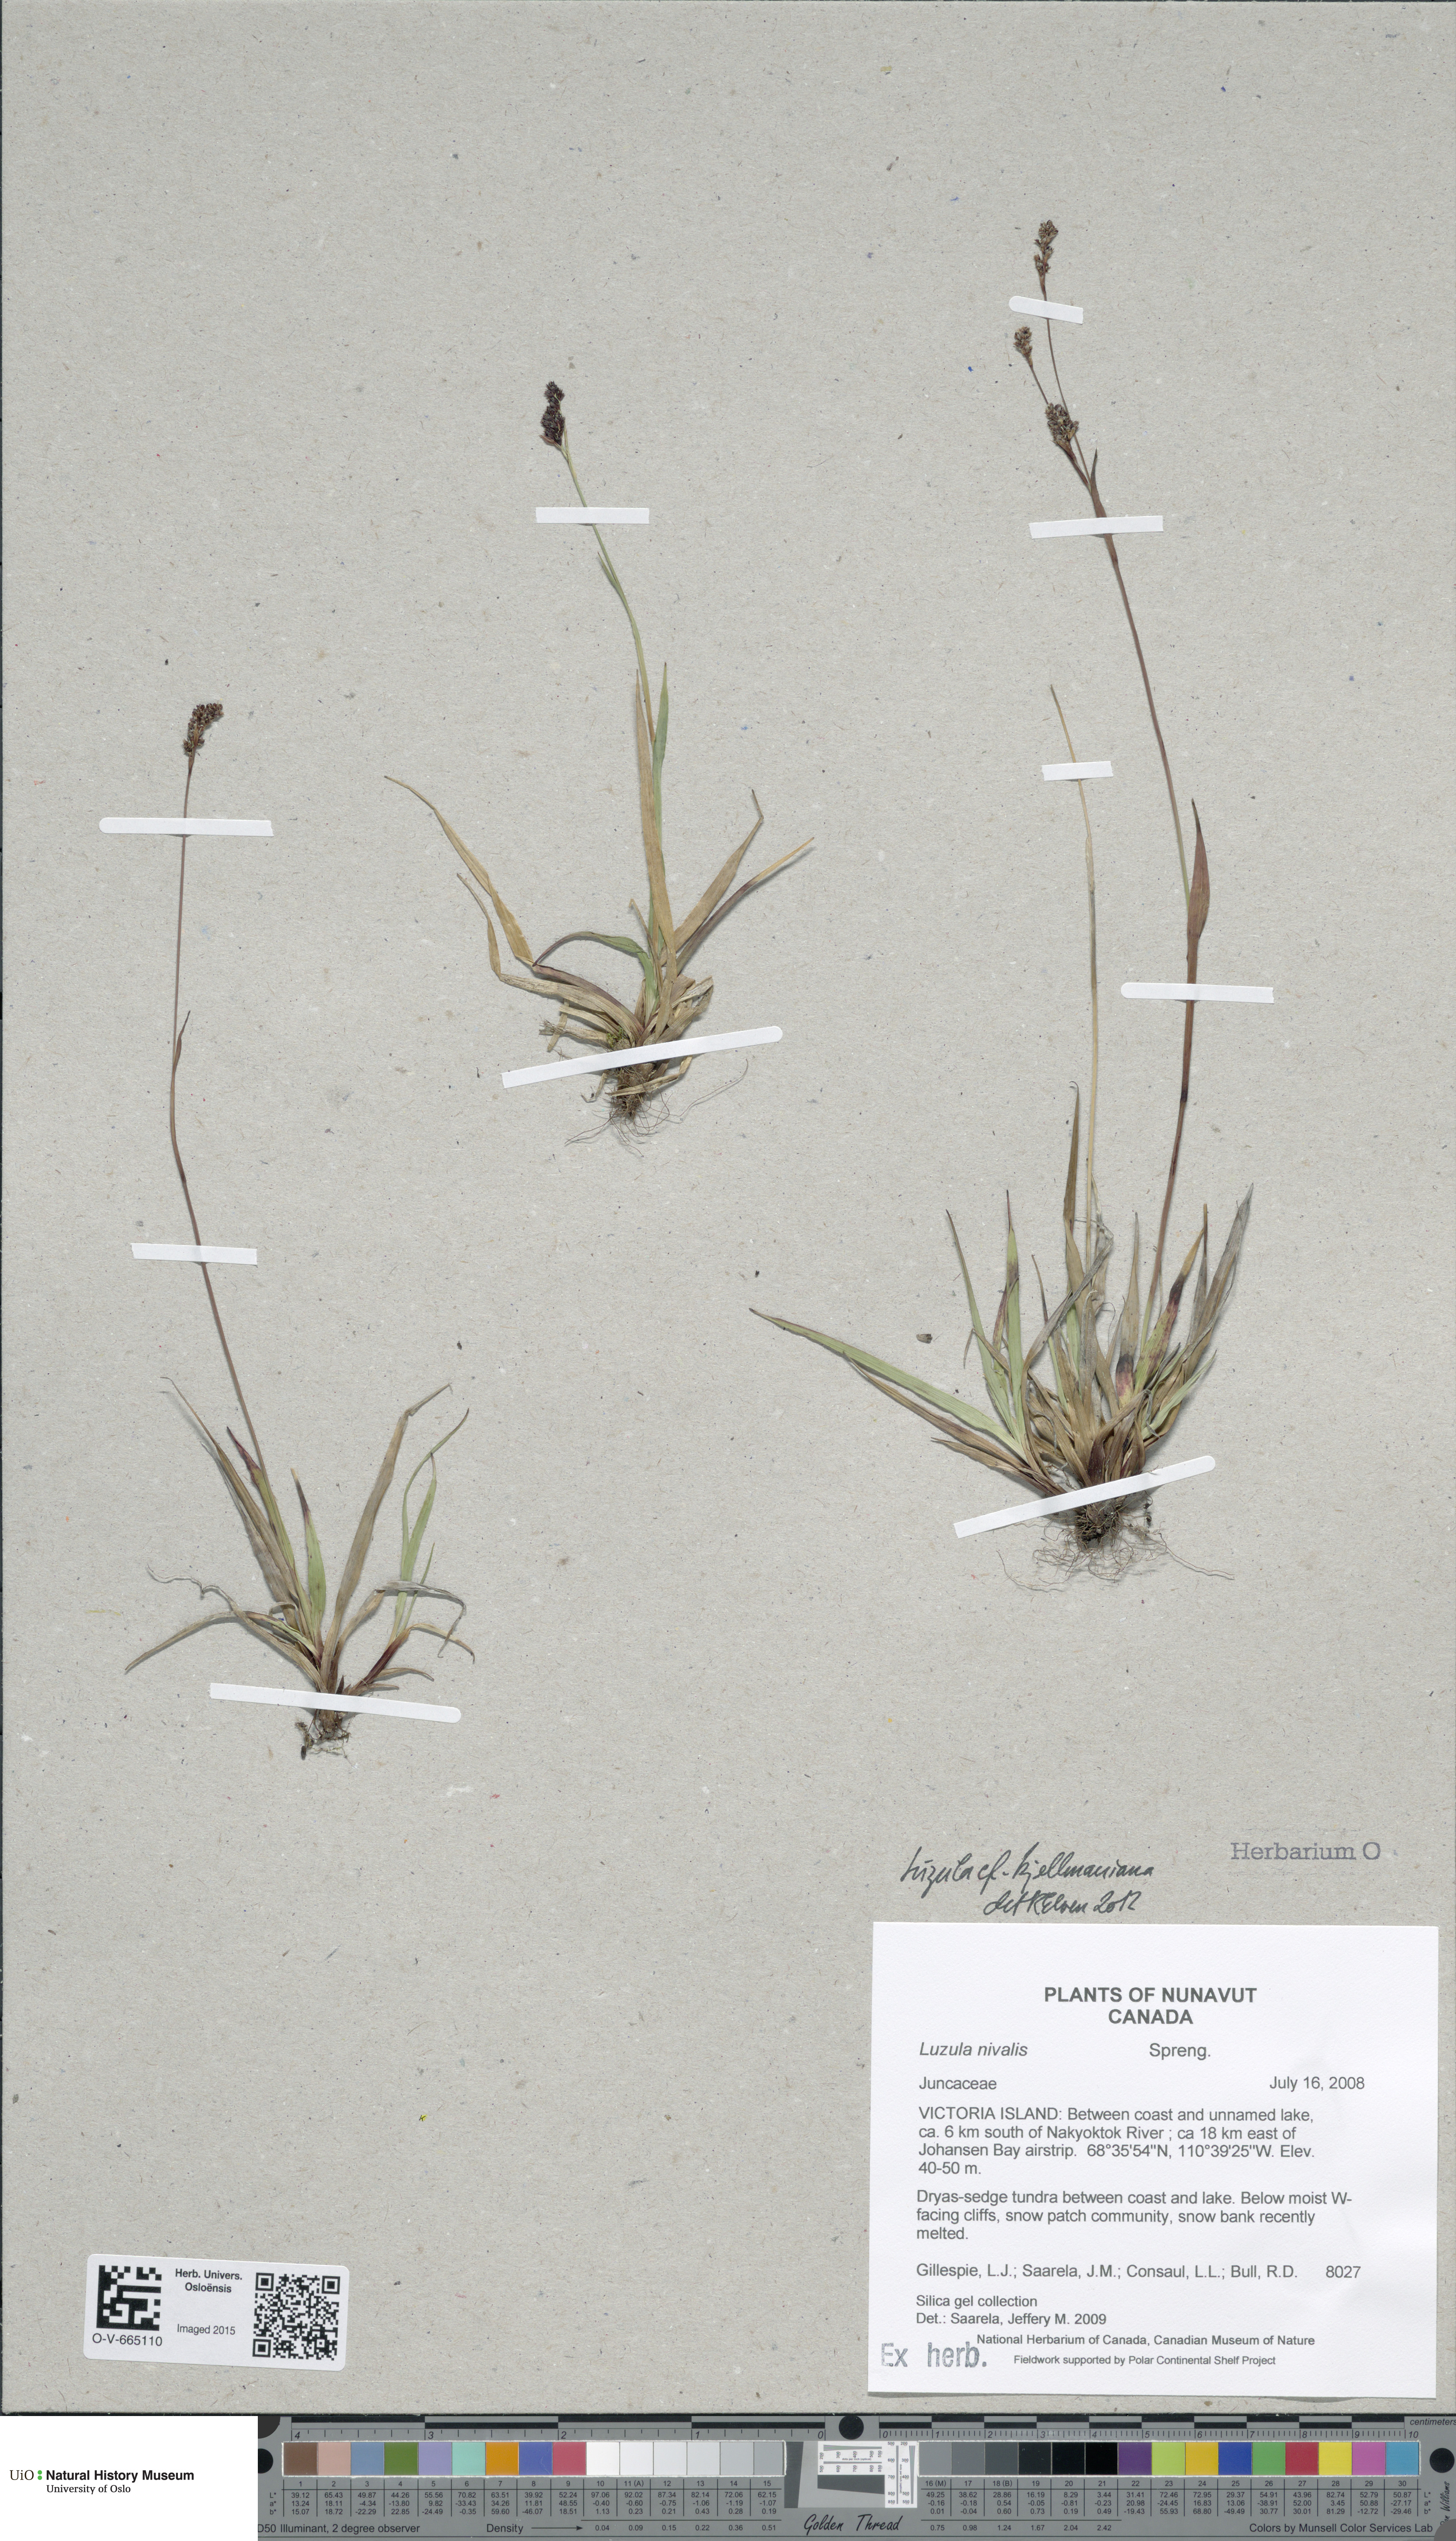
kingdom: Plantae
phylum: Tracheophyta
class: Liliopsida
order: Poales
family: Juncaceae
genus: Luzula
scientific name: Luzula kjellmaniana
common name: Kjellman's woodrush
